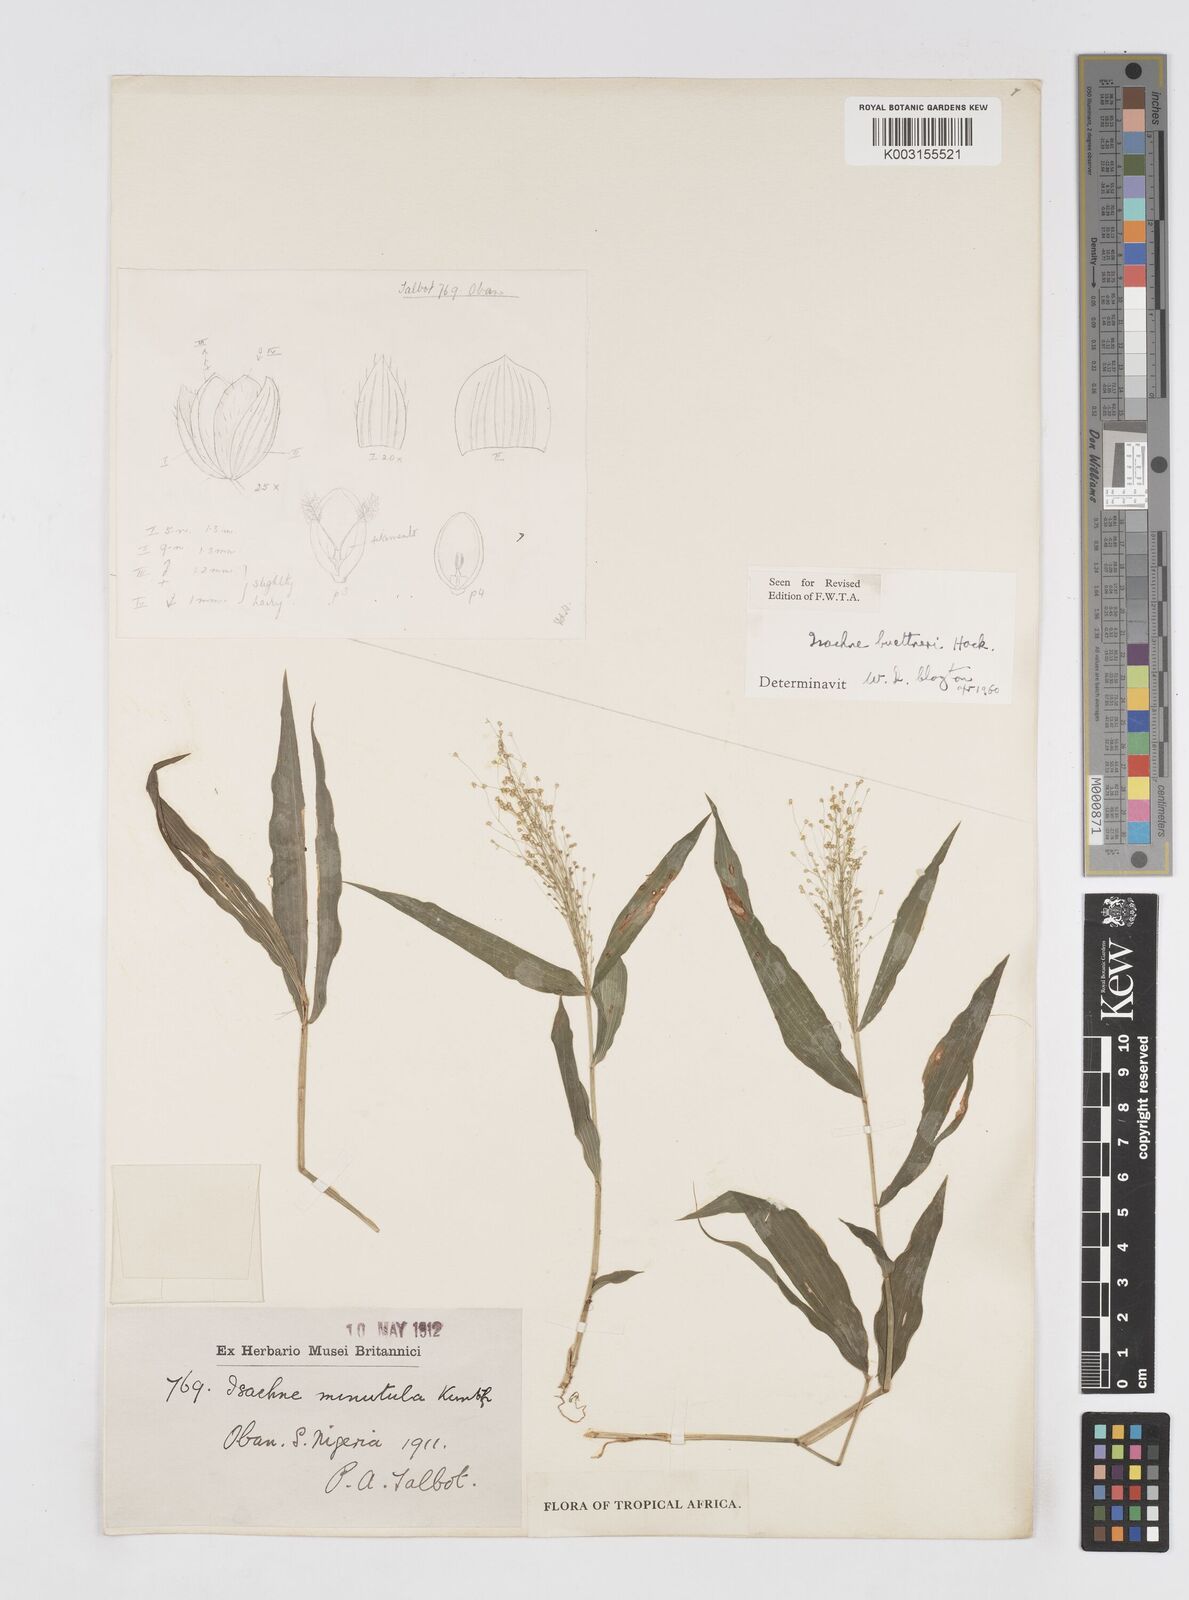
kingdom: Plantae
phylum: Tracheophyta
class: Liliopsida
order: Poales
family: Poaceae
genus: Isachne
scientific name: Isachne albens
